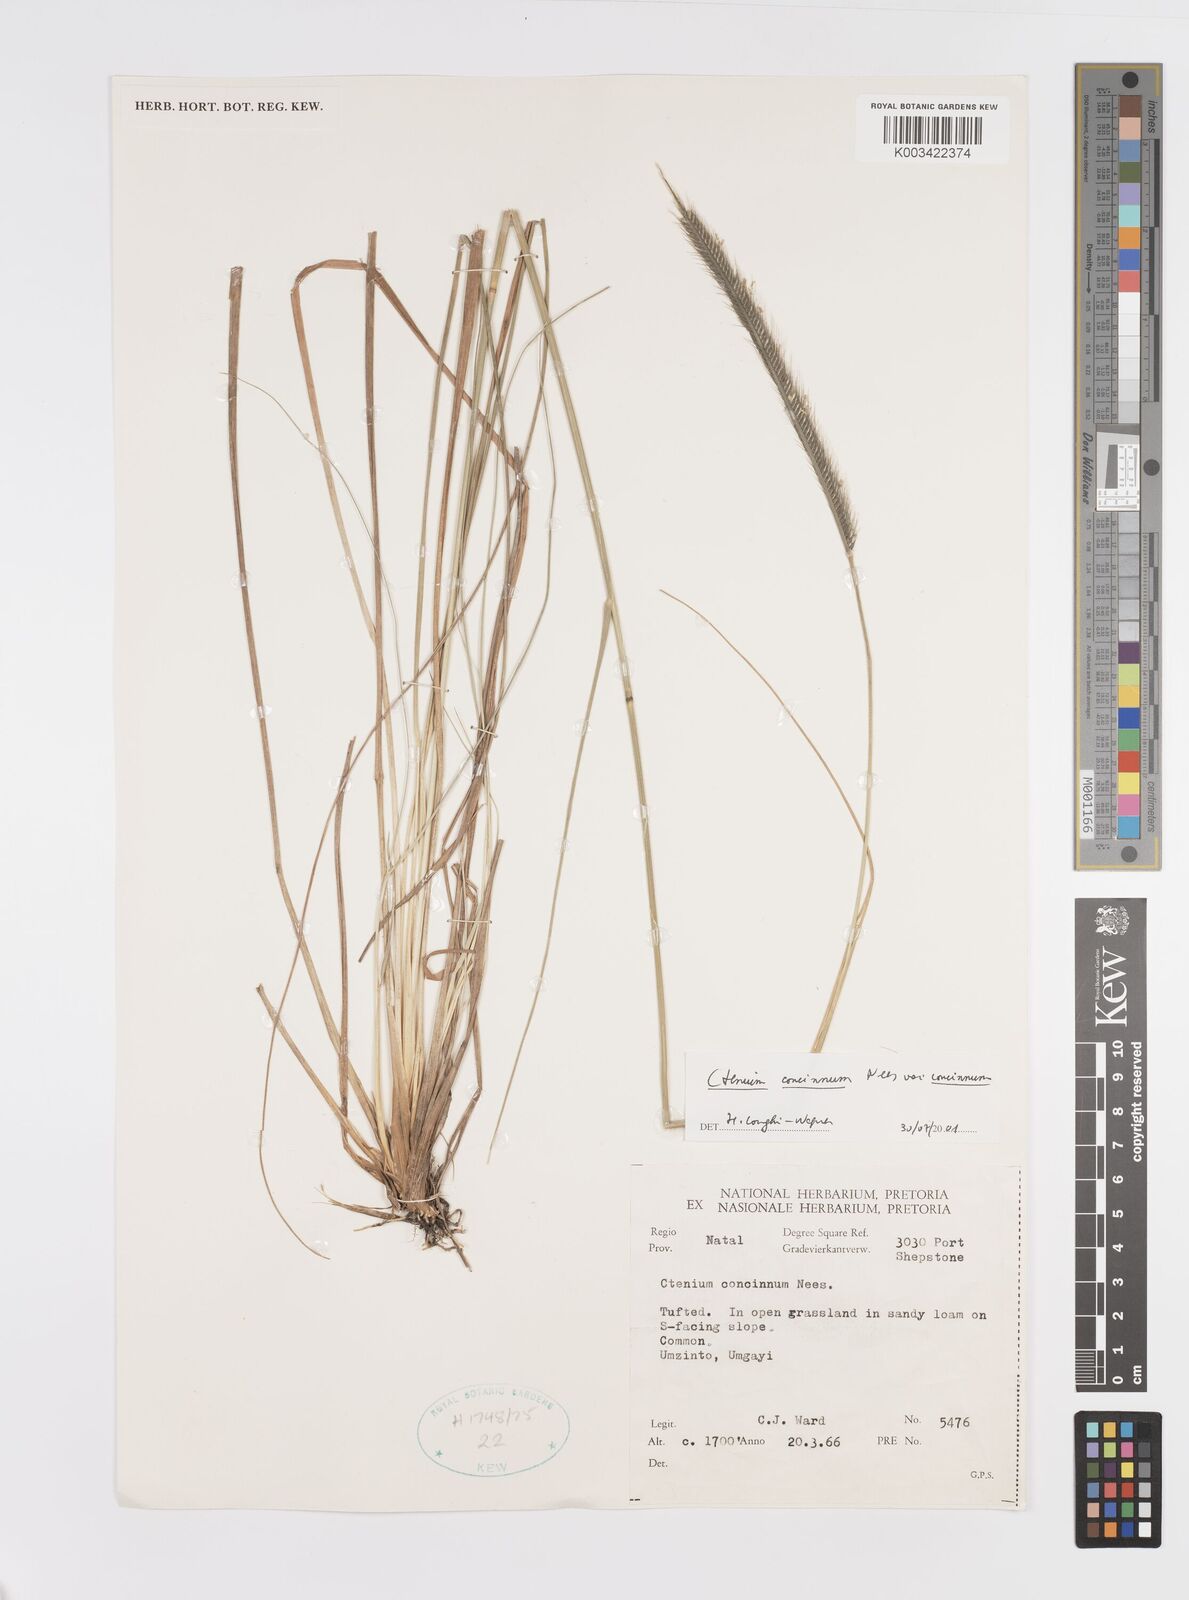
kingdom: Plantae
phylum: Tracheophyta
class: Liliopsida
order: Poales
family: Poaceae
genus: Ctenium
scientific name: Ctenium concinnum
